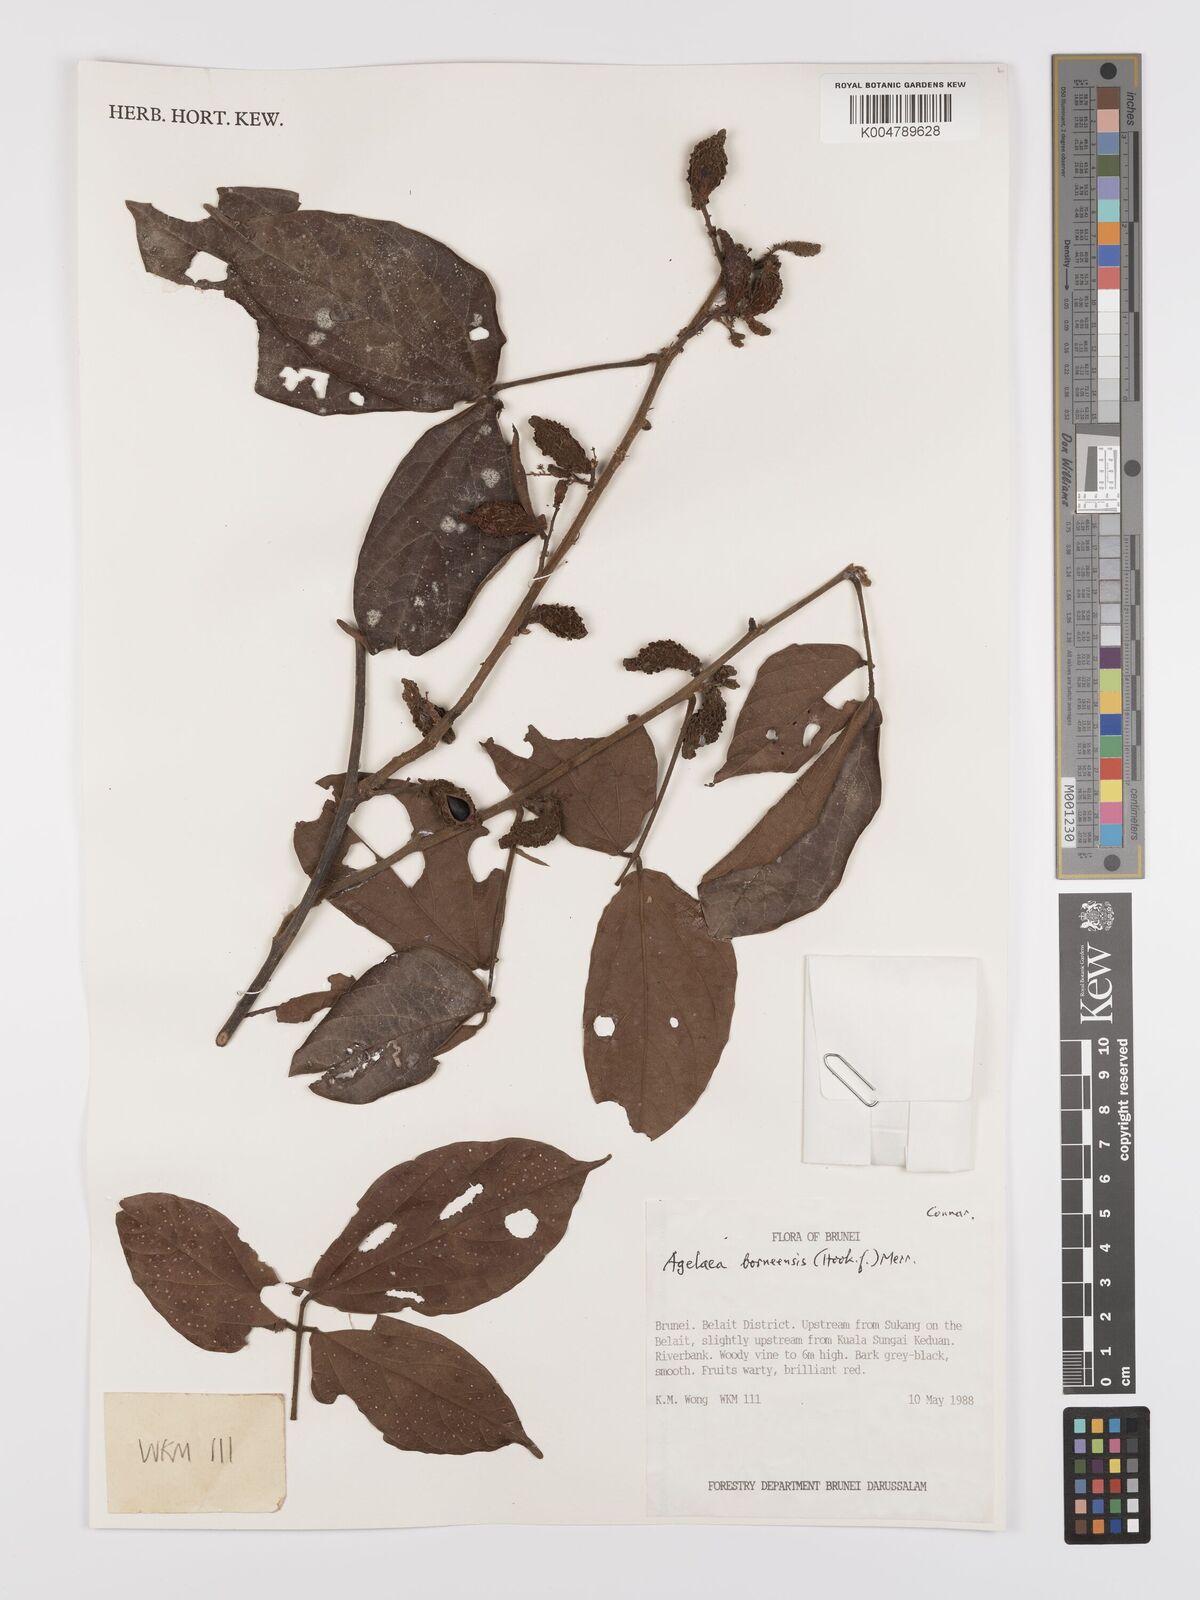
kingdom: Plantae
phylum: Tracheophyta
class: Magnoliopsida
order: Oxalidales
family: Connaraceae
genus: Agelaea
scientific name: Agelaea borneensis
